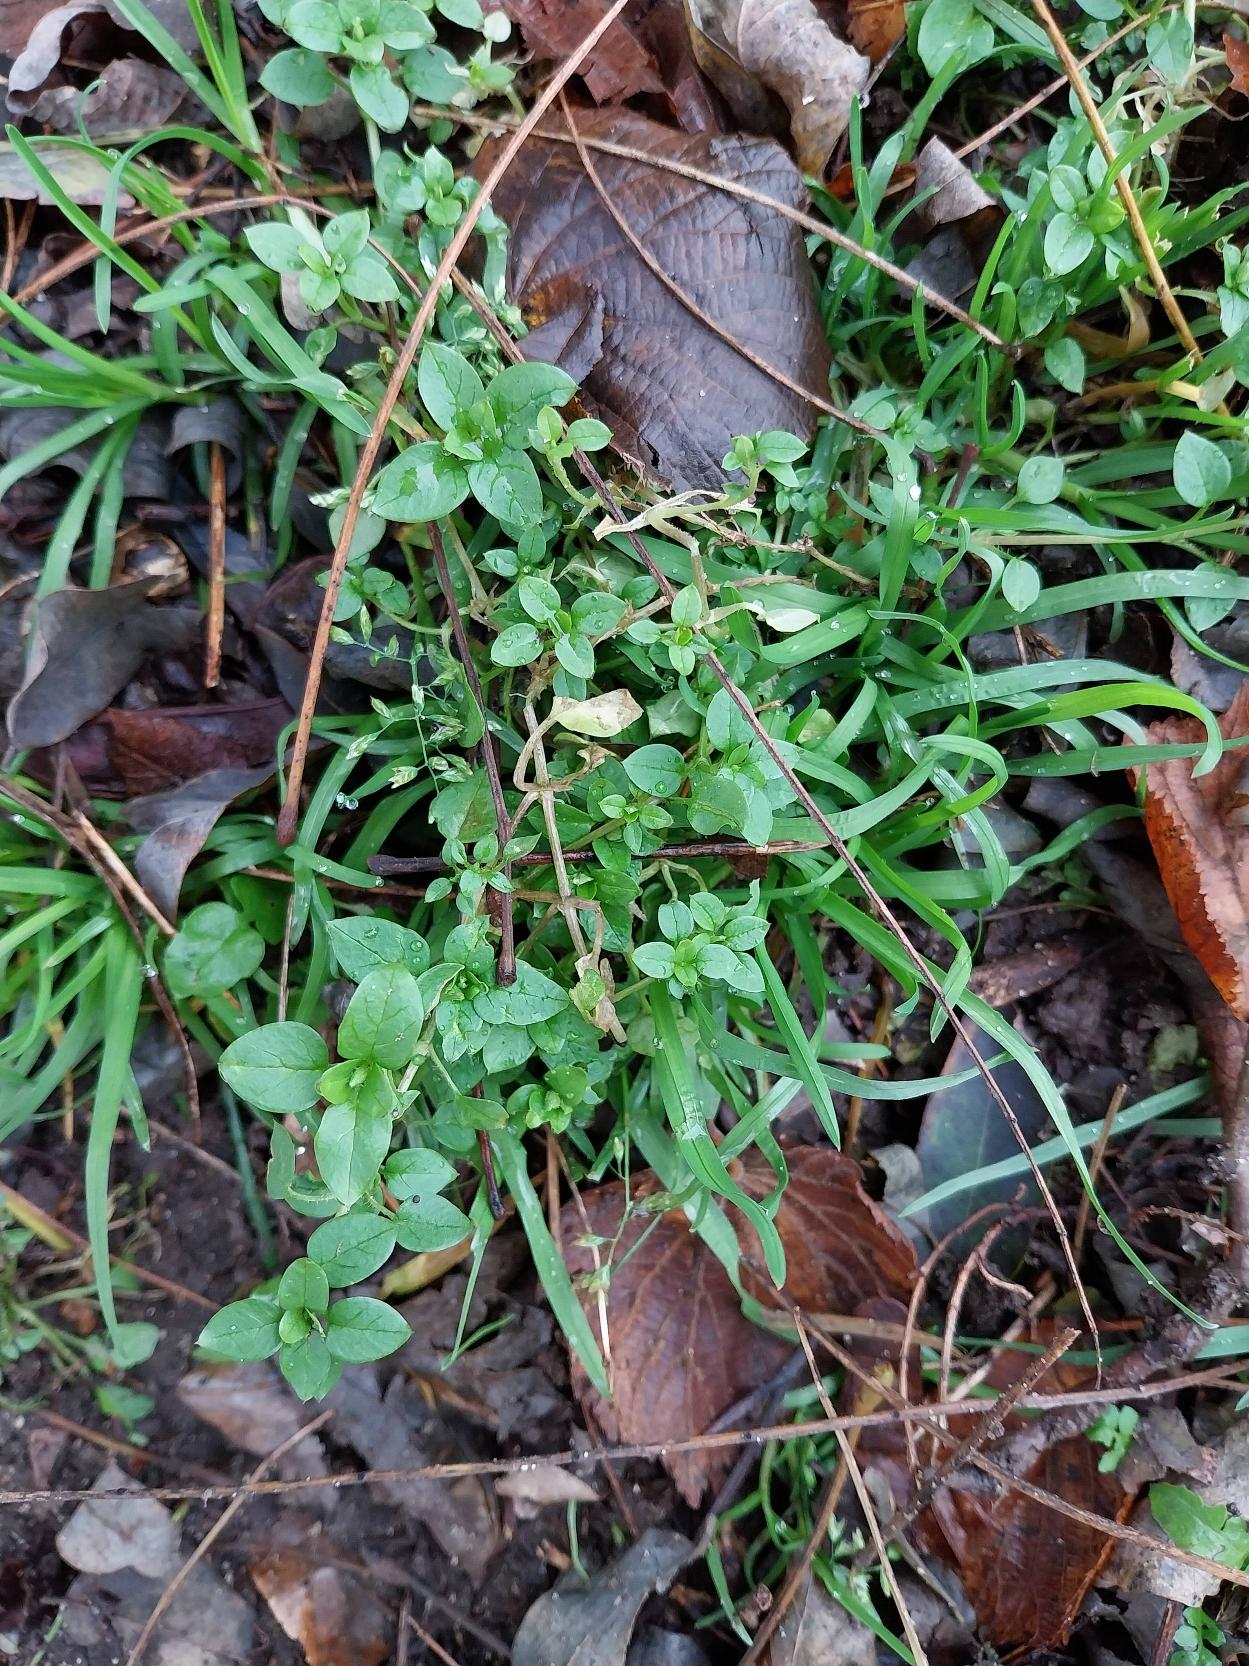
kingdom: Plantae
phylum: Tracheophyta
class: Magnoliopsida
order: Caryophyllales
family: Caryophyllaceae
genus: Stellaria
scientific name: Stellaria media
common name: Almindelig fuglegræs
